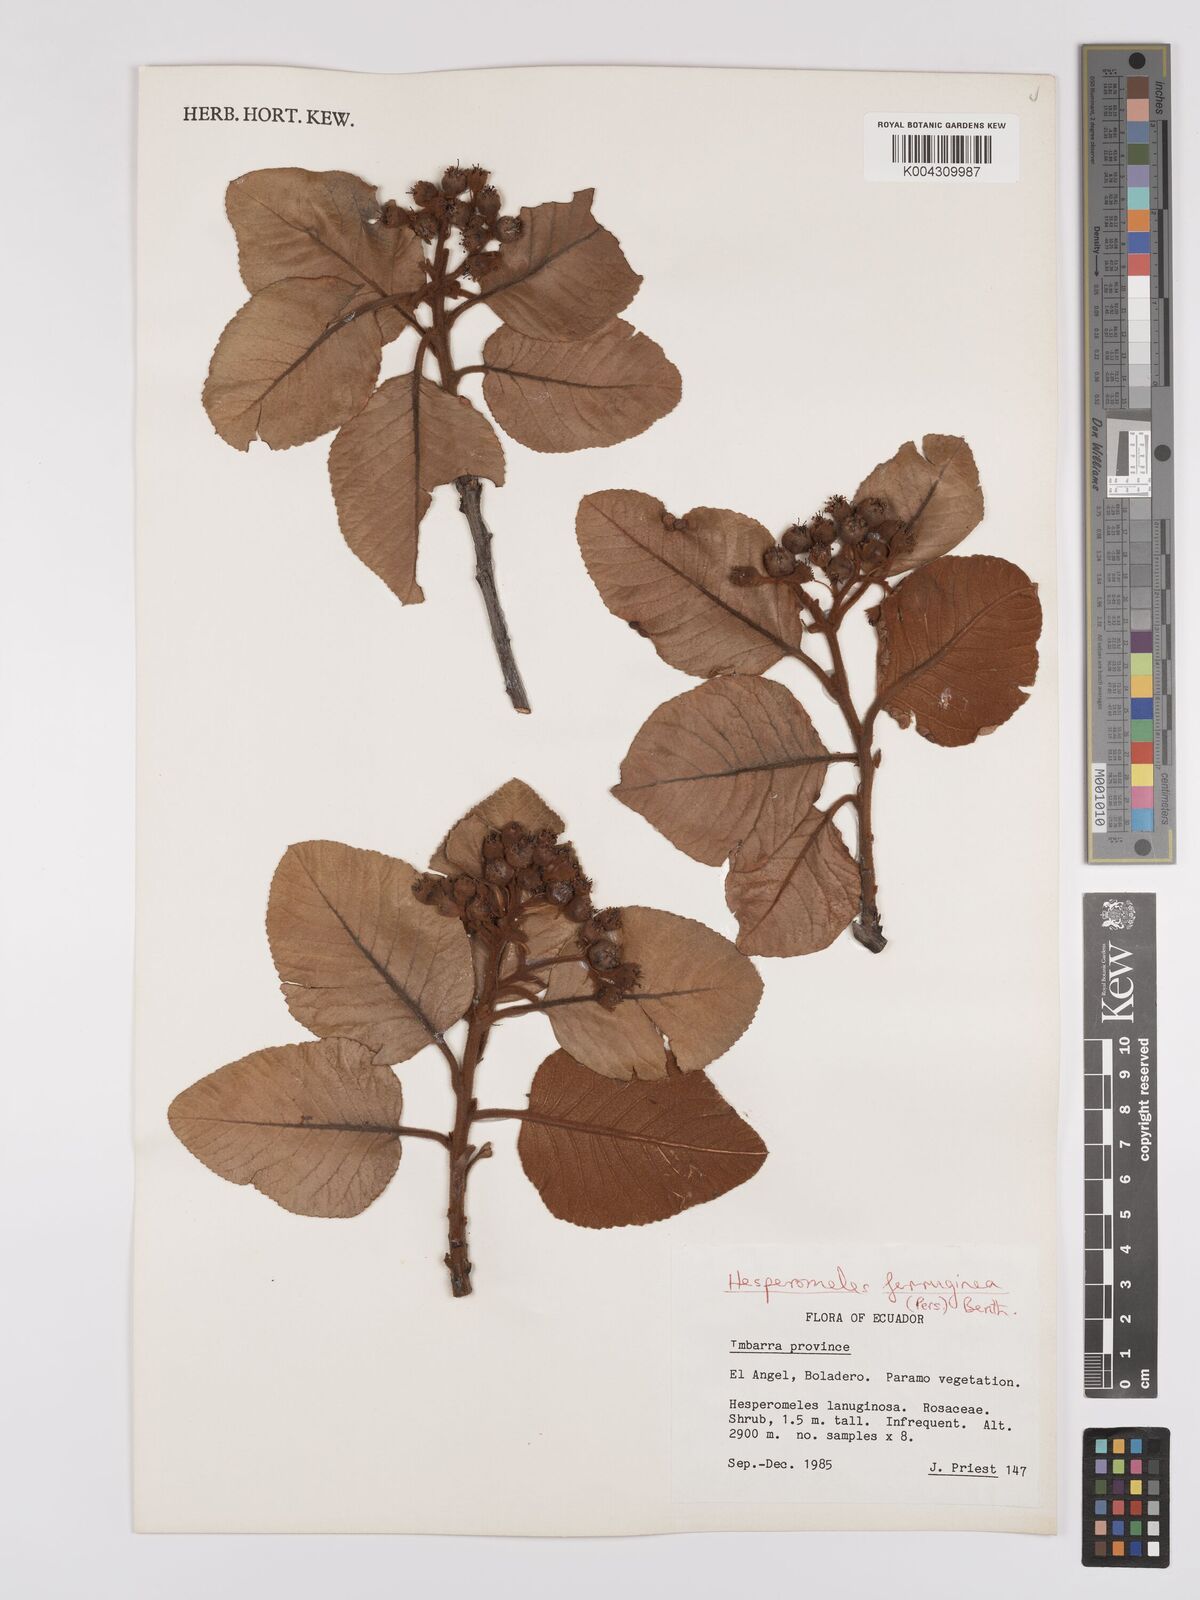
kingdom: Plantae
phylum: Tracheophyta
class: Magnoliopsida
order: Rosales
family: Rosaceae
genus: Hesperomeles
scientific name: Hesperomeles ferruginea
